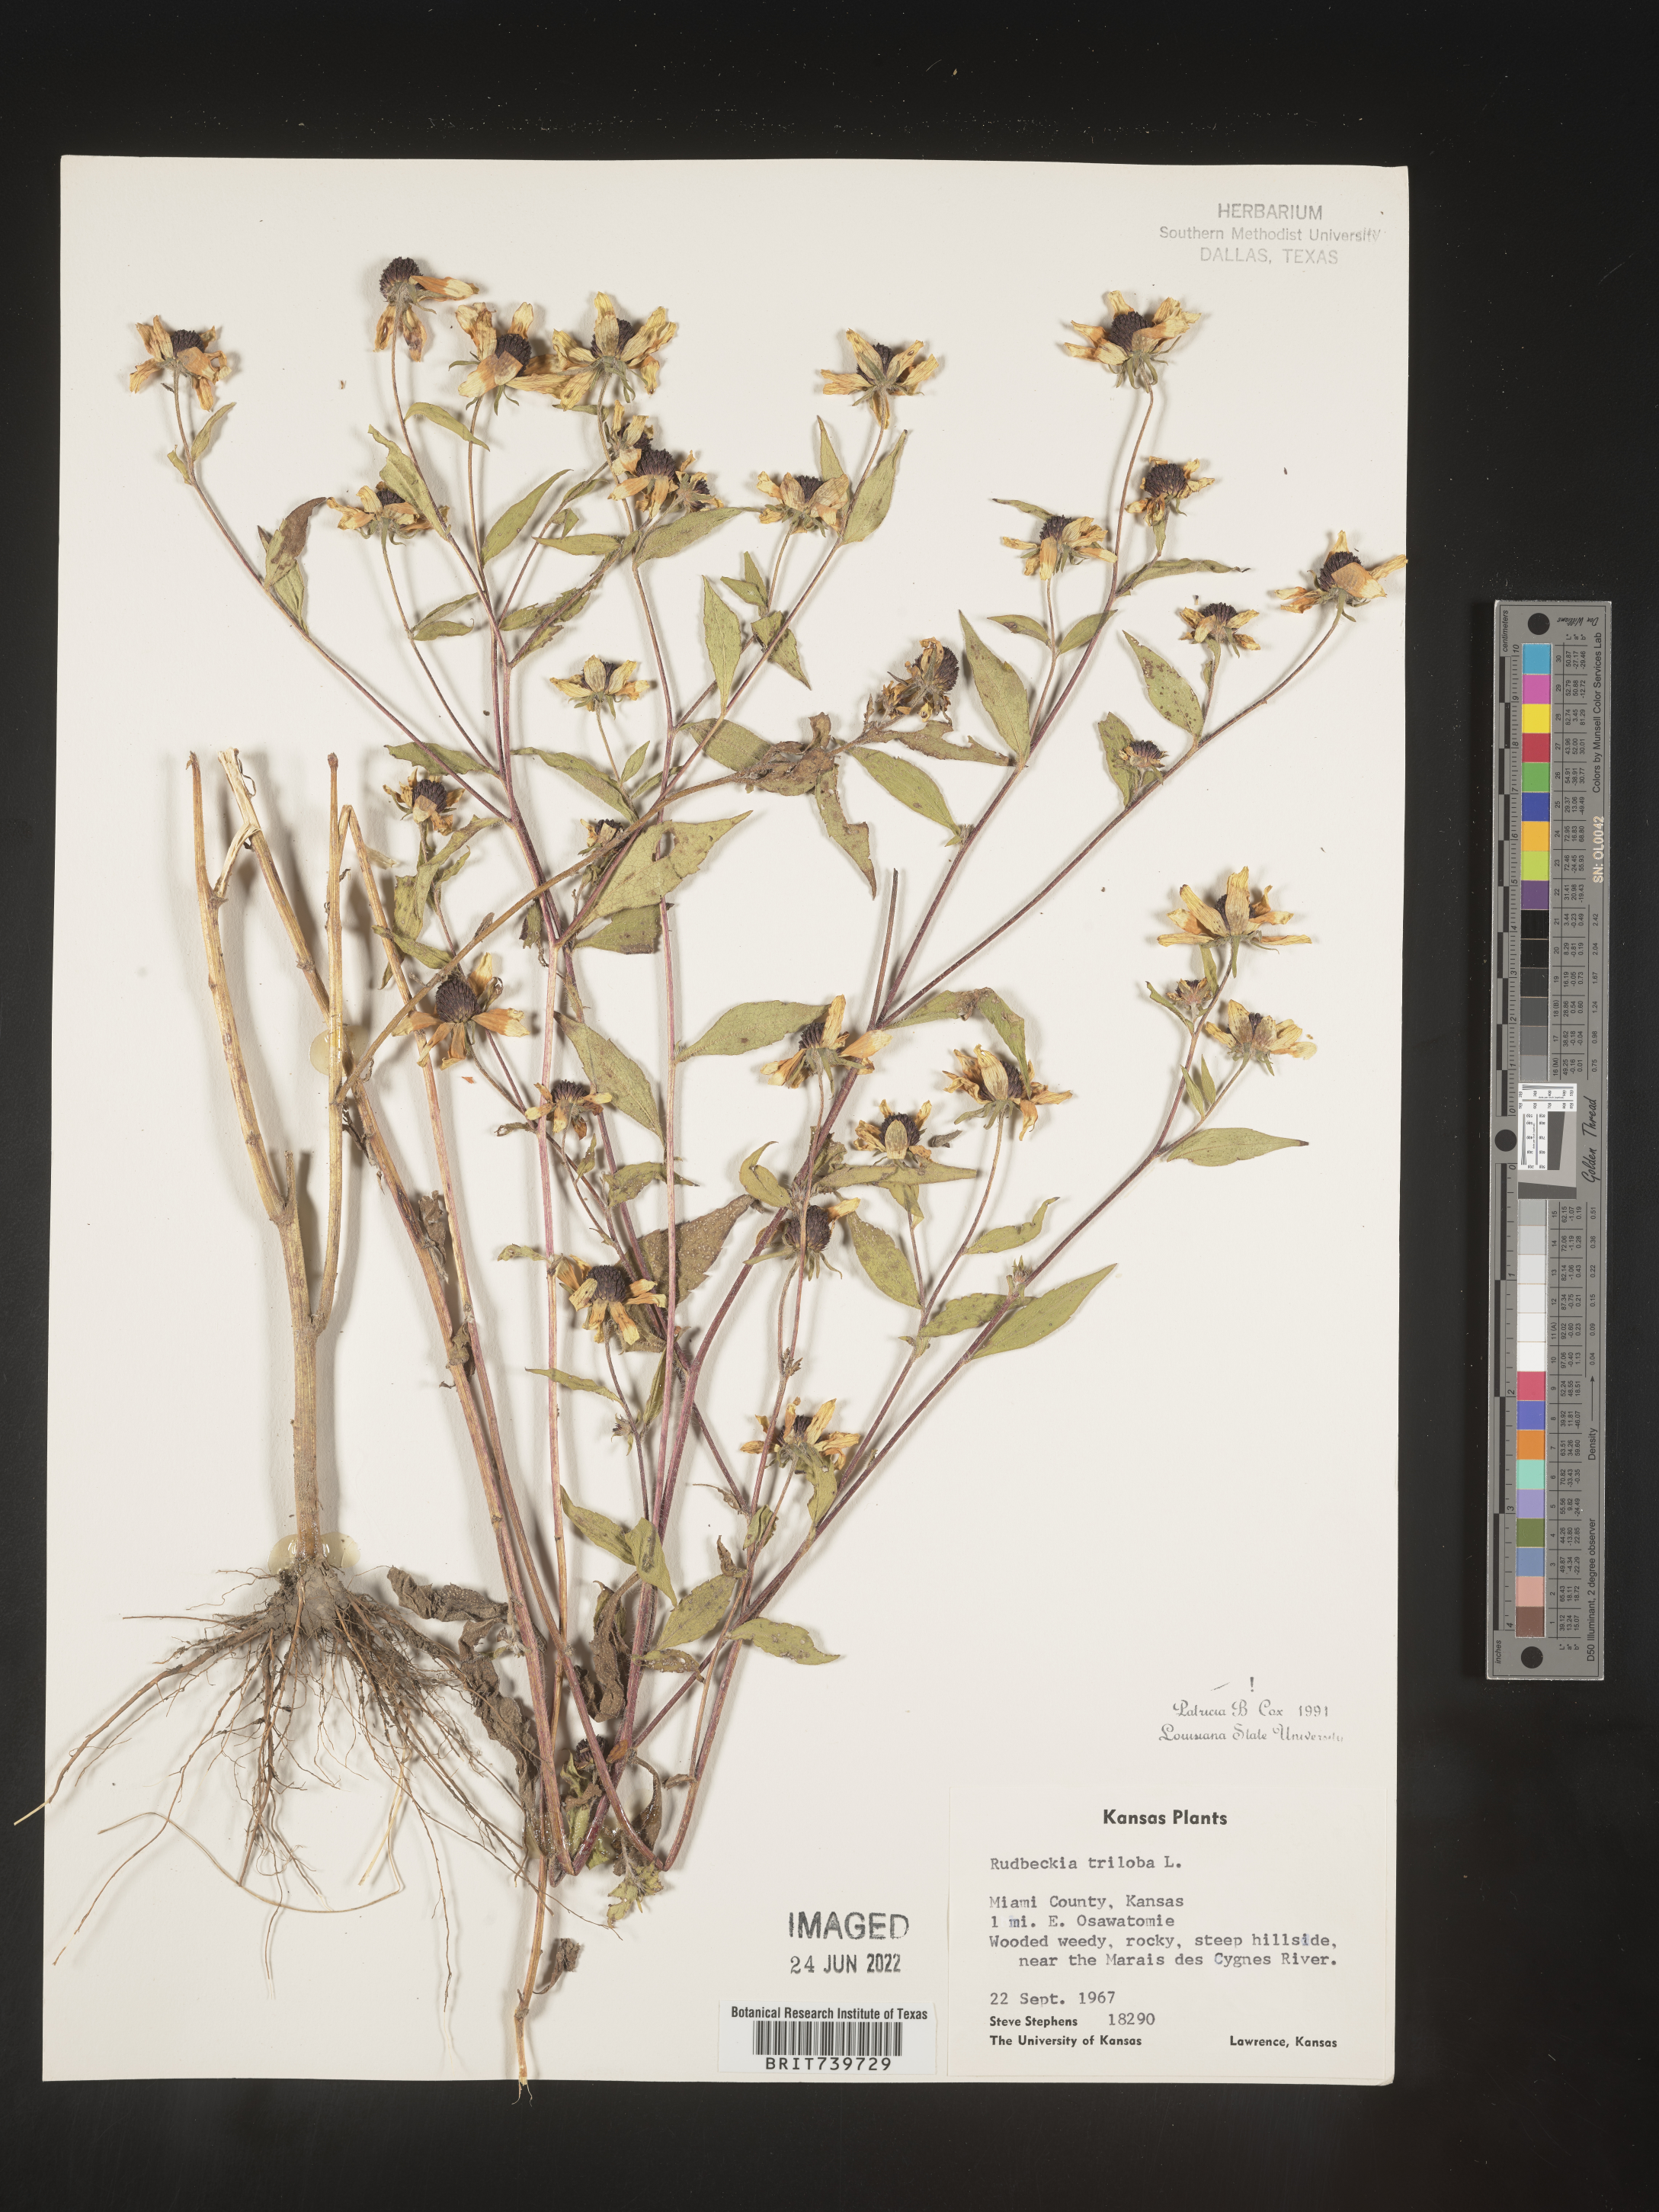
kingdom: Plantae
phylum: Tracheophyta
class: Magnoliopsida
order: Asterales
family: Asteraceae
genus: Rudbeckia
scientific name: Rudbeckia triloba
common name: Thin-leaved coneflower
